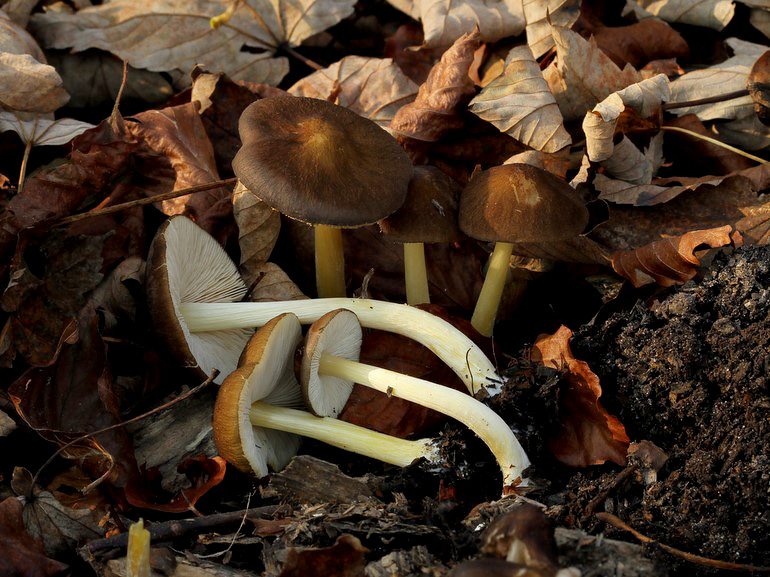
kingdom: Fungi
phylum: Basidiomycota
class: Agaricomycetes
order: Agaricales
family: Pluteaceae
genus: Pluteus
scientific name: Pluteus romellii
